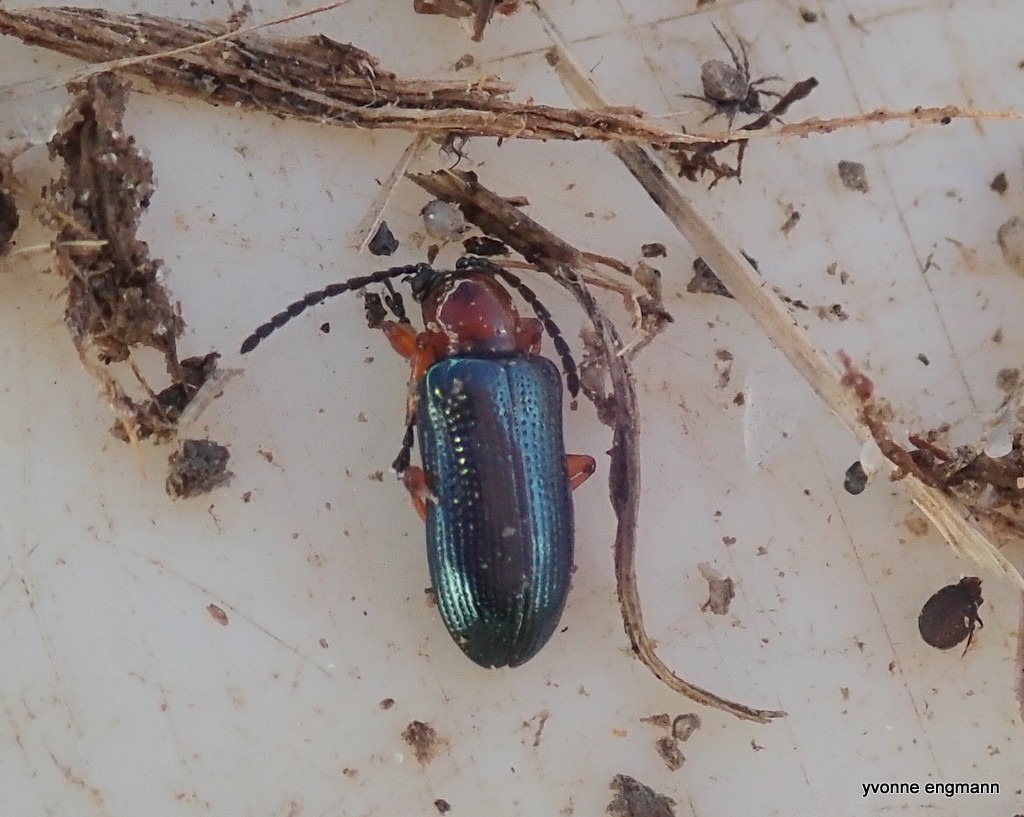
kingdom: Animalia
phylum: Arthropoda
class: Insecta
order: Coleoptera
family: Chrysomelidae
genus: Oulema
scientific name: Oulema
